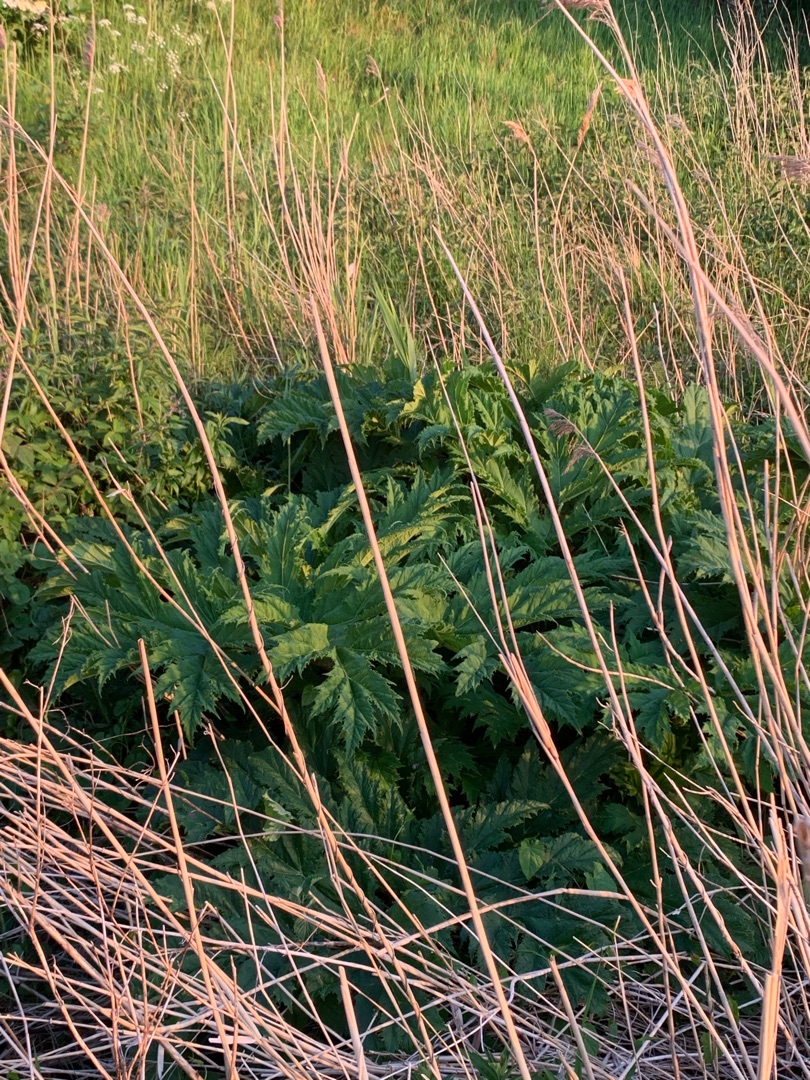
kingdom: Plantae
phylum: Tracheophyta
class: Magnoliopsida
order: Apiales
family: Apiaceae
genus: Heracleum
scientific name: Heracleum mantegazzianum
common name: Kæmpe-bjørneklo
